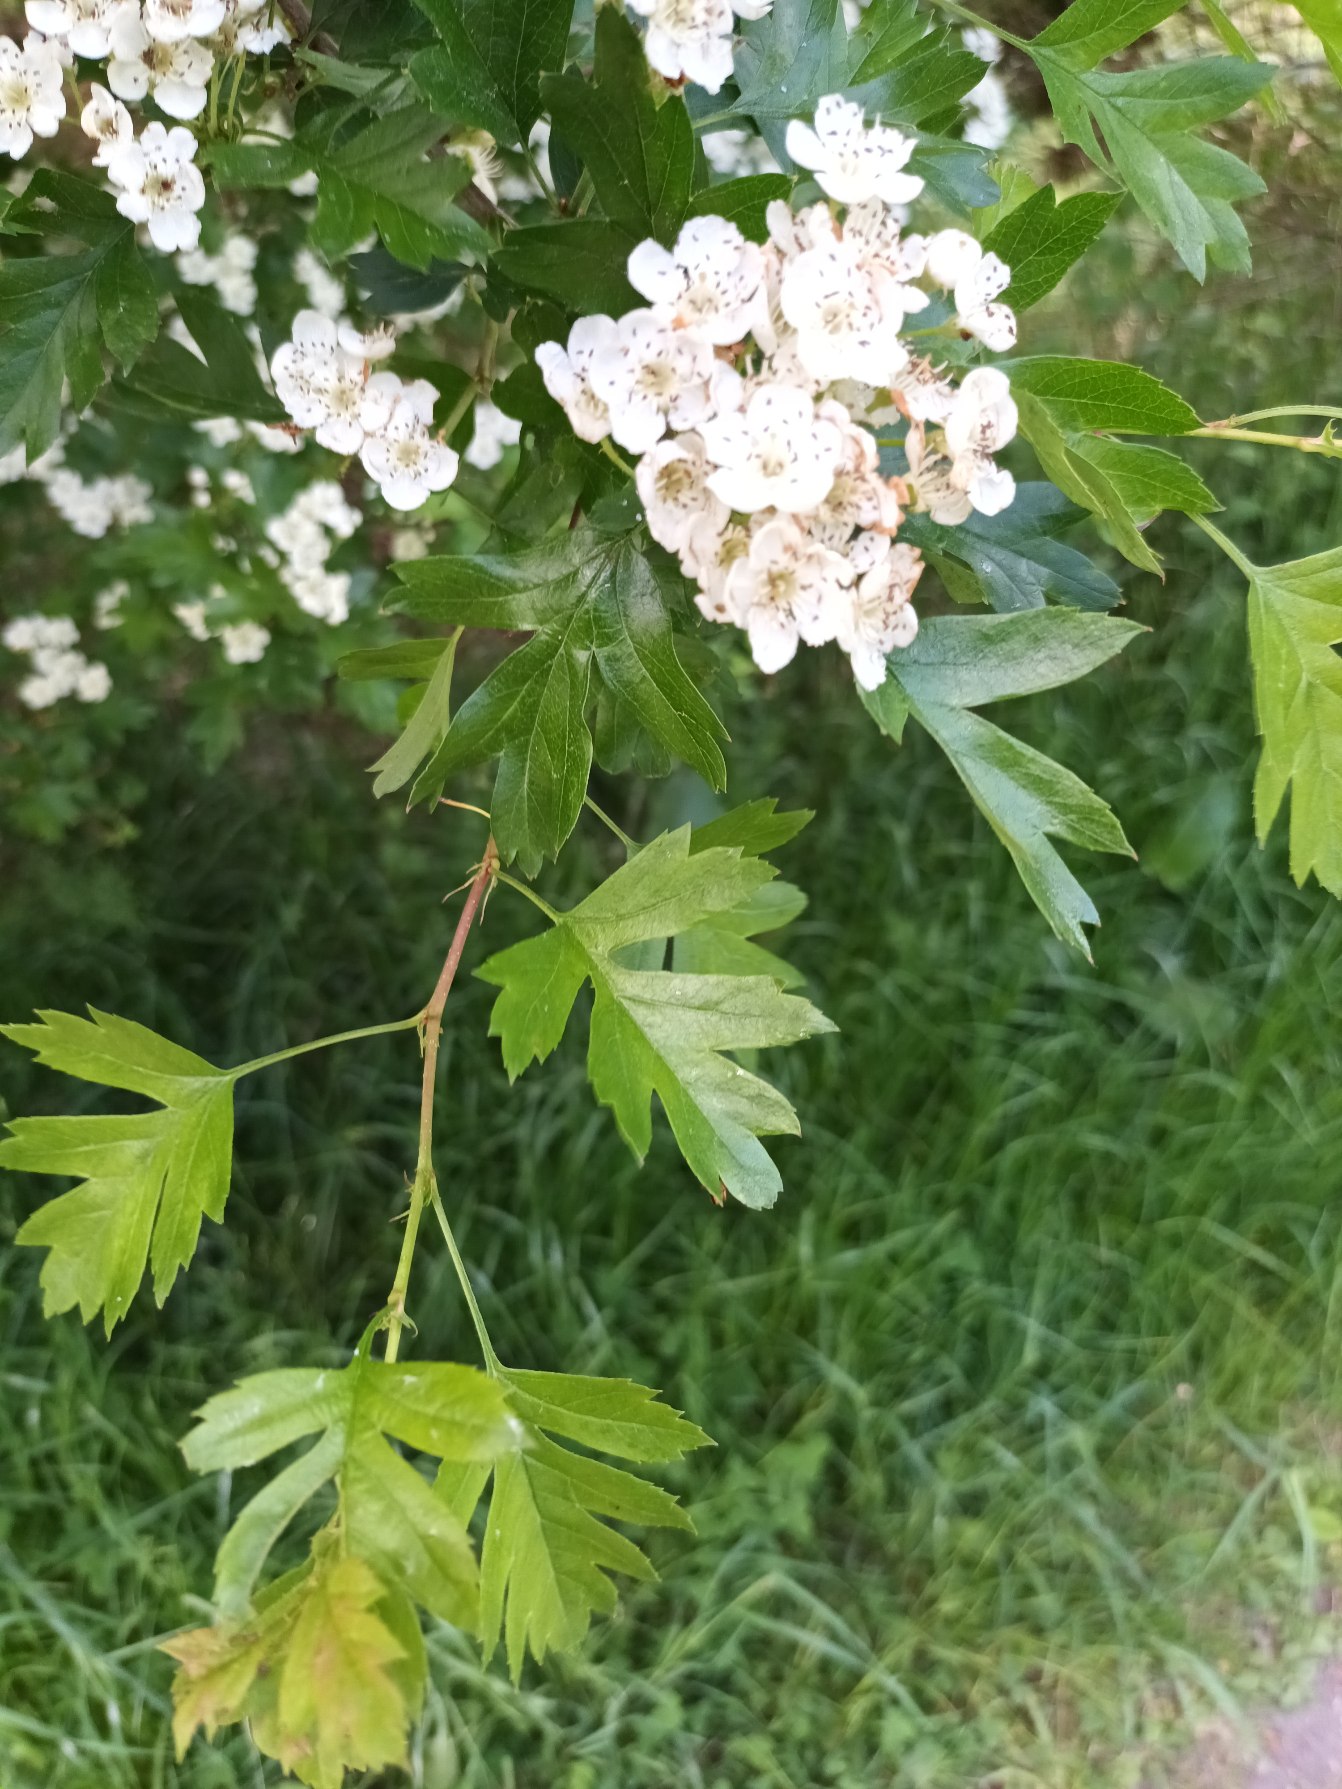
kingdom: Plantae
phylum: Tracheophyta
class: Magnoliopsida
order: Rosales
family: Rosaceae
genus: Crataegus
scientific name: Crataegus monogyna
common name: Engriflet hvidtjørn
